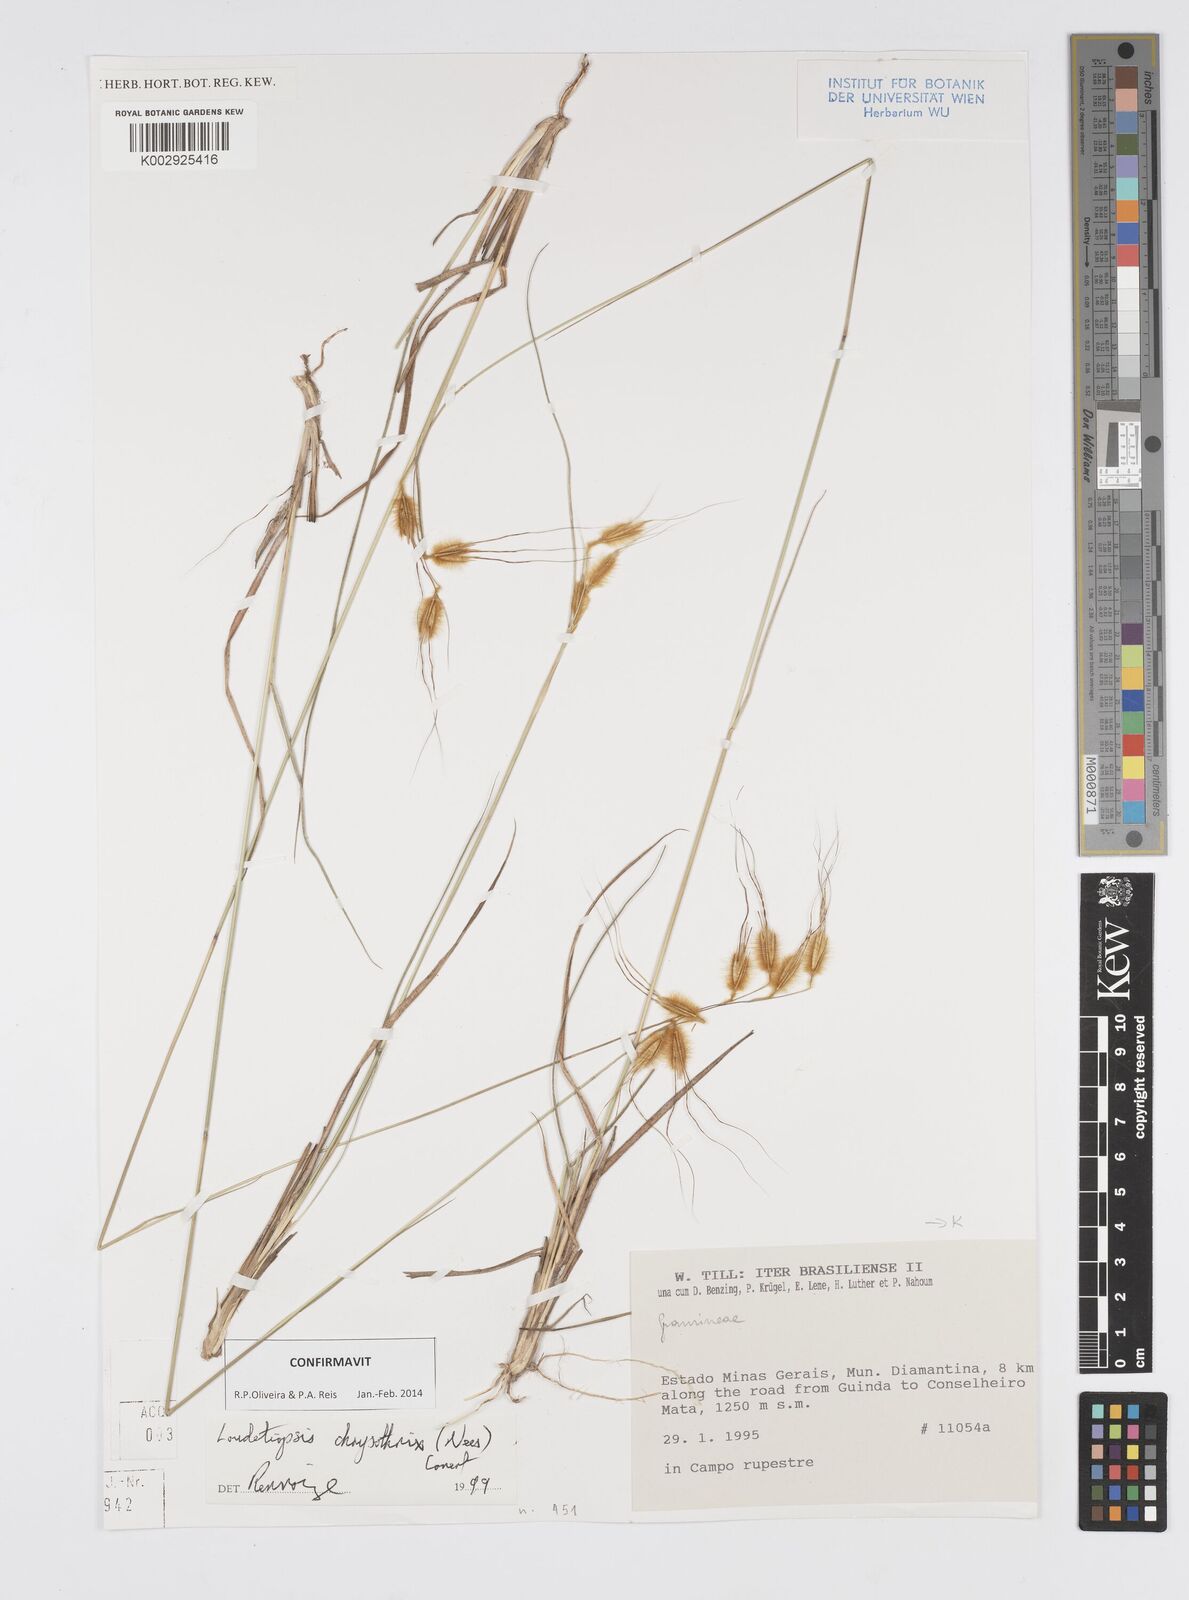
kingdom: Plantae
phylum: Tracheophyta
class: Liliopsida
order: Poales
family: Poaceae
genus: Loudetiopsis
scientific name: Loudetiopsis chrysothrix
